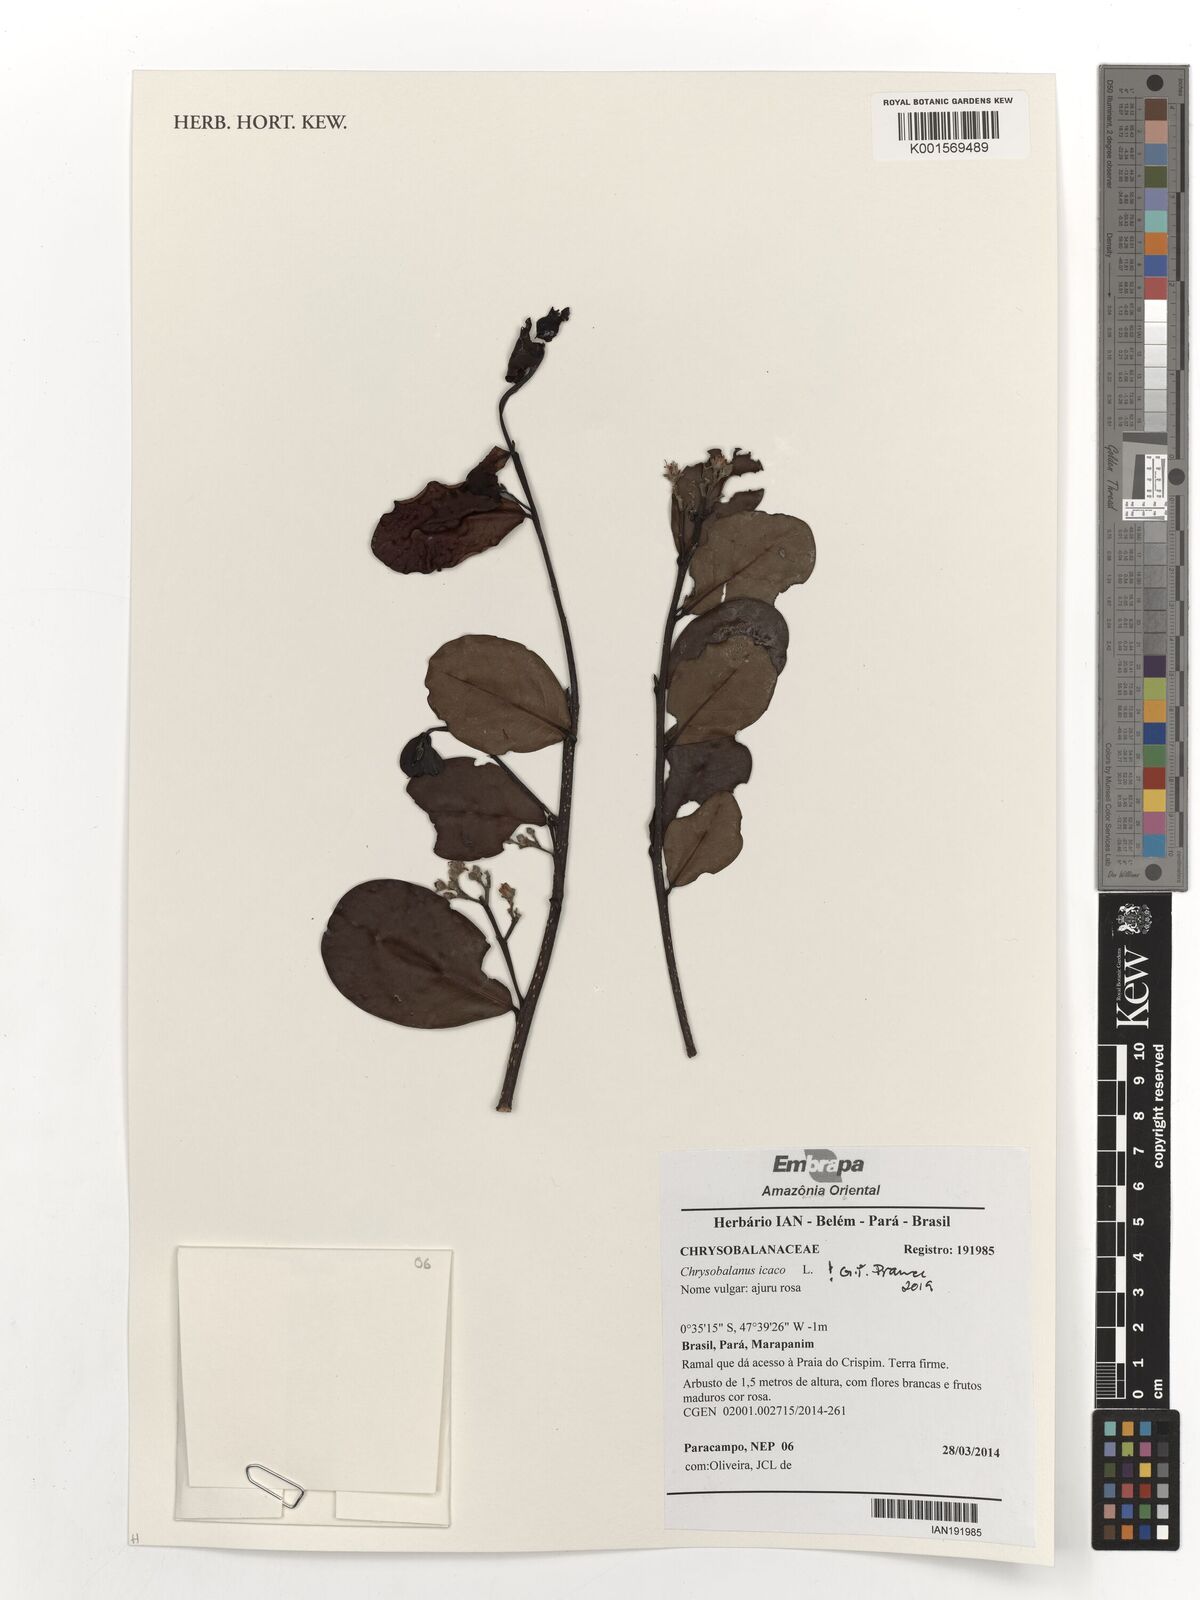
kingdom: Plantae
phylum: Tracheophyta
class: Magnoliopsida
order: Malpighiales
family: Chrysobalanaceae
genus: Chrysobalanus
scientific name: Chrysobalanus icaco
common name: Coco plum
